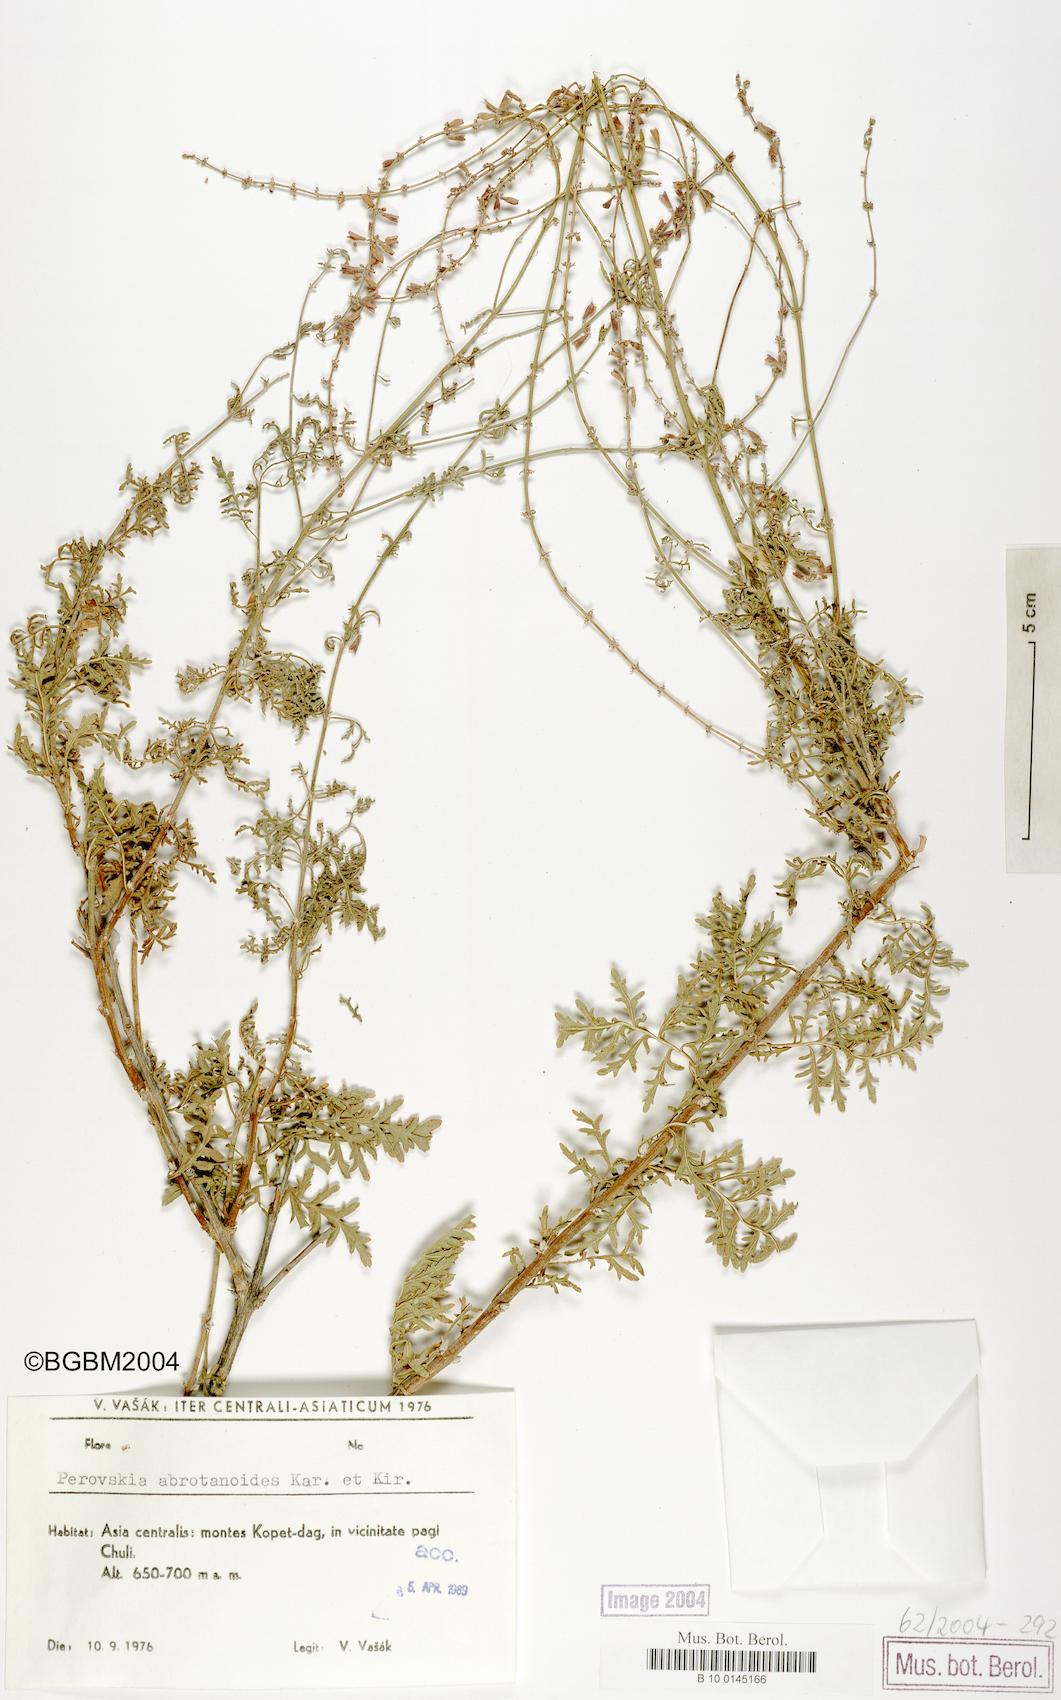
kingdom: Plantae
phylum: Tracheophyta
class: Magnoliopsida
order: Lamiales
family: Lamiaceae
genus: Salvia
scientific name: Salvia abrotanoides
